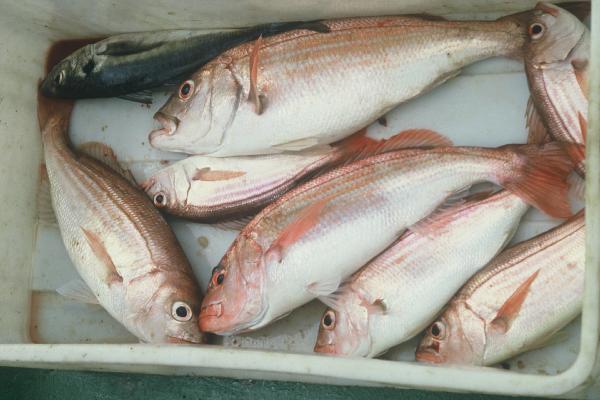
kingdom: Animalia
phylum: Chordata
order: Perciformes
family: Sparidae
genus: Argyrozona
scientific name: Argyrozona argyrozona
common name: Carpenter
